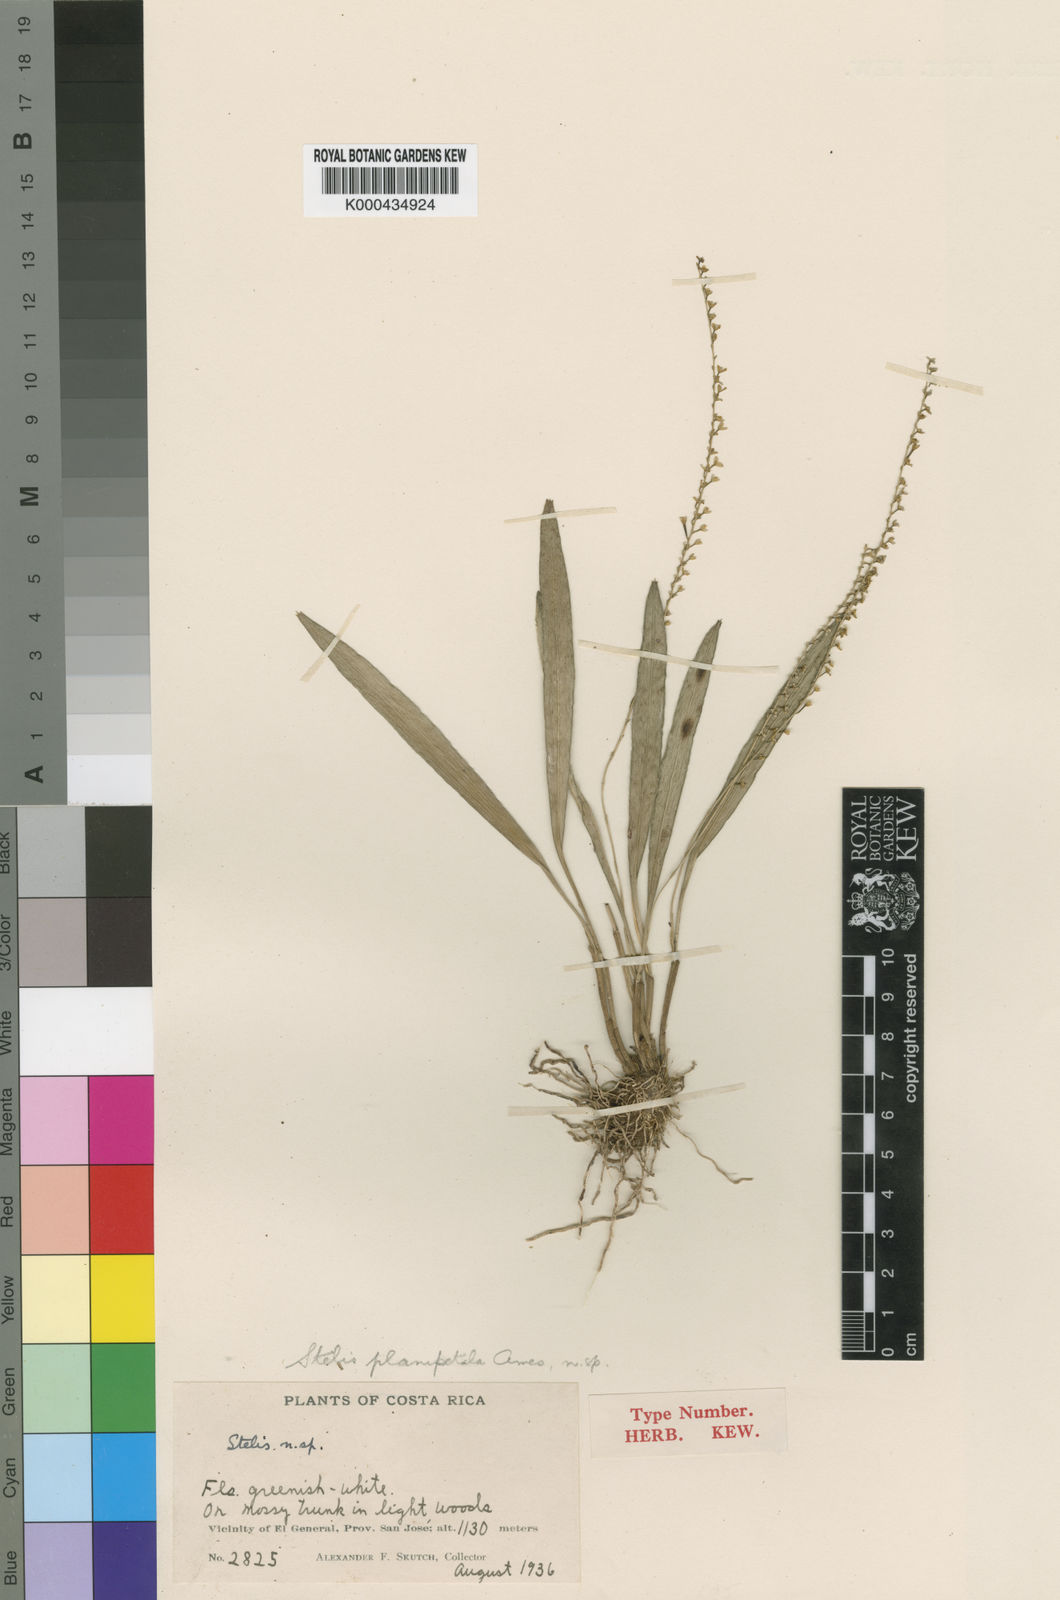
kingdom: Plantae
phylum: Tracheophyta
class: Liliopsida
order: Asparagales
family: Orchidaceae
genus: Stelis
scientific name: Stelis planipetala
